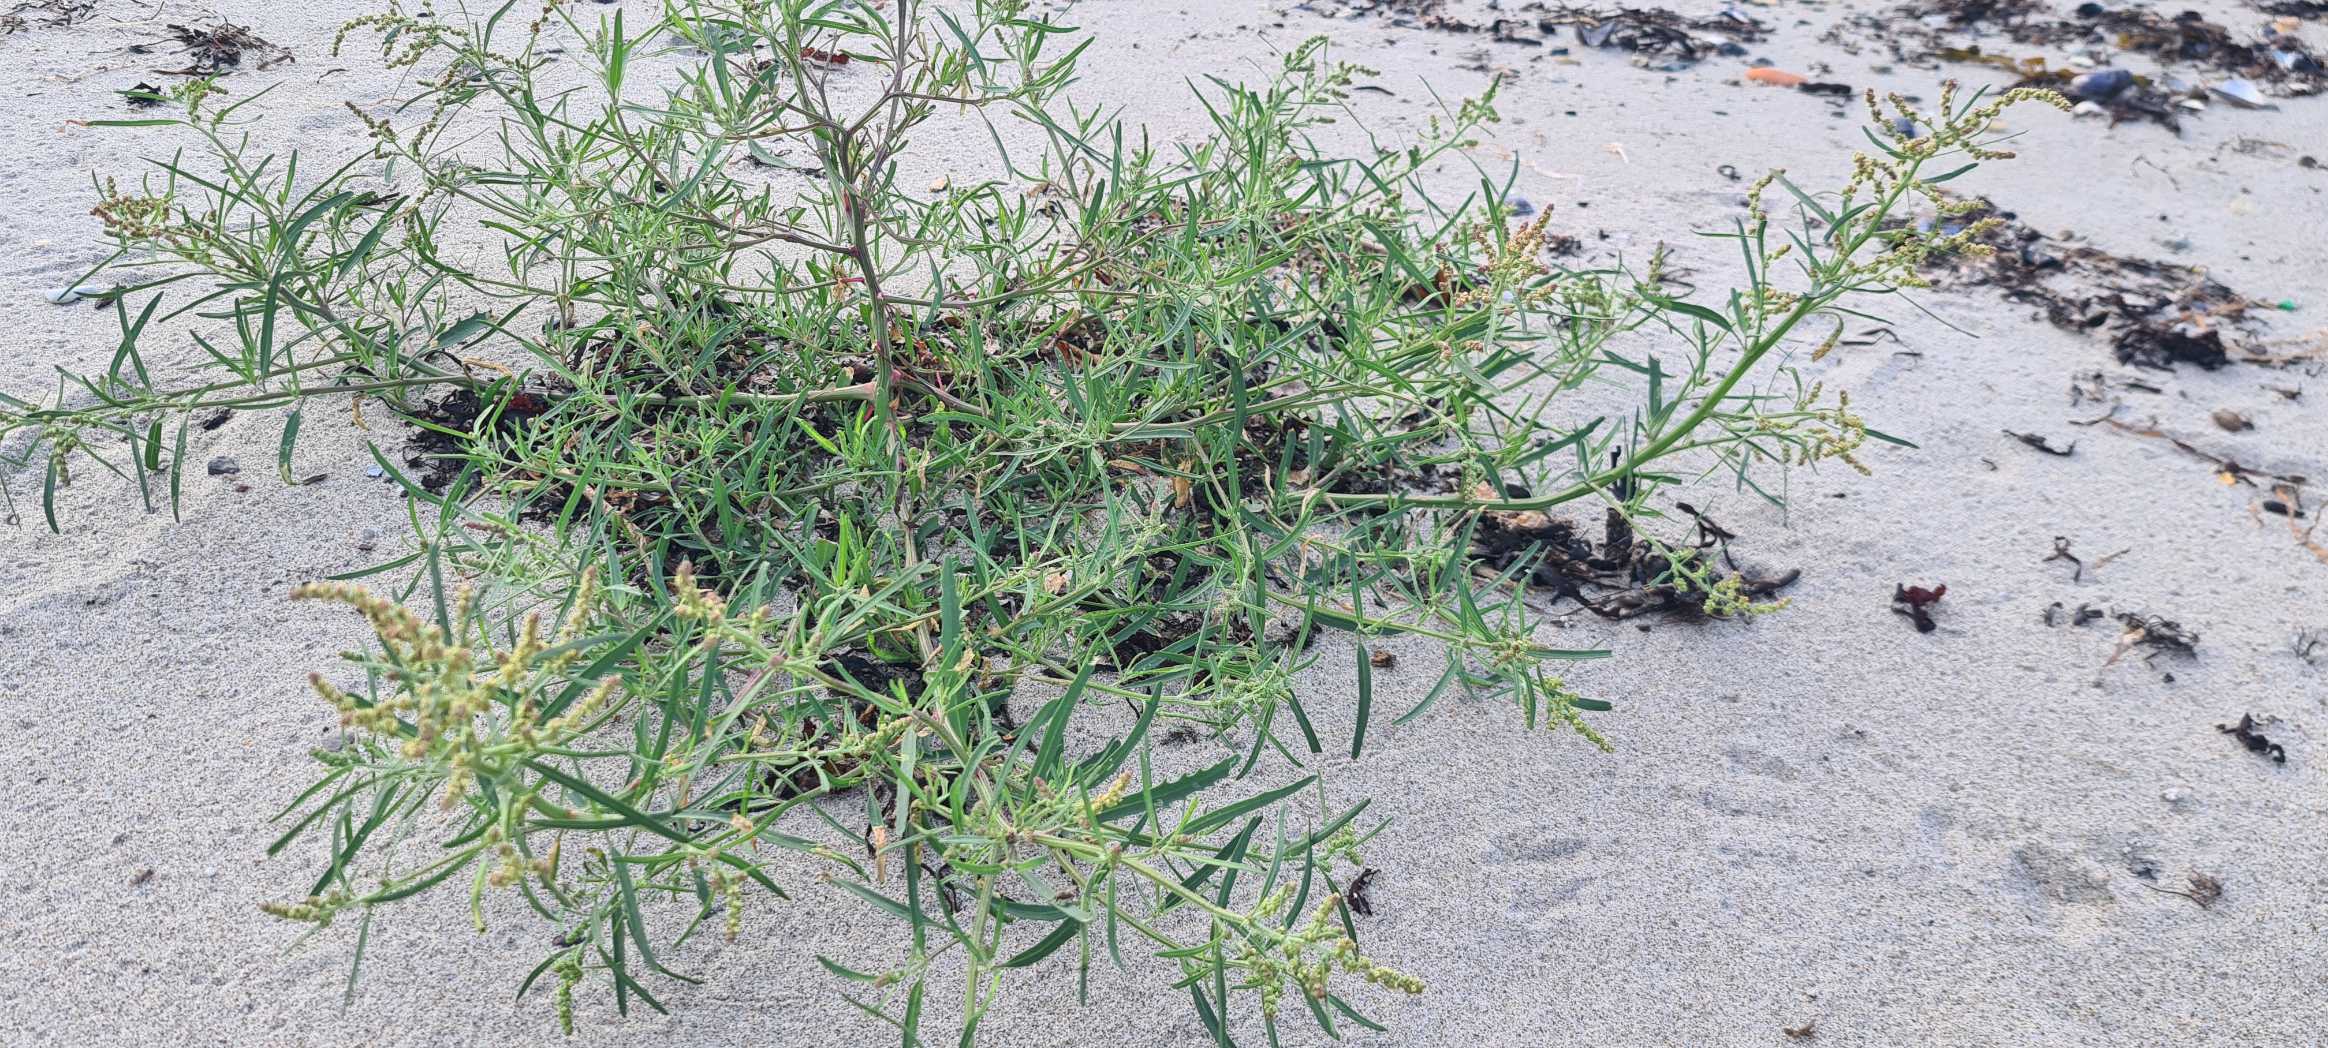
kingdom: Plantae
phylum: Tracheophyta
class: Magnoliopsida
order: Caryophyllales
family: Amaranthaceae
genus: Atriplex
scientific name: Atriplex littoralis
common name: Strand-mælde
